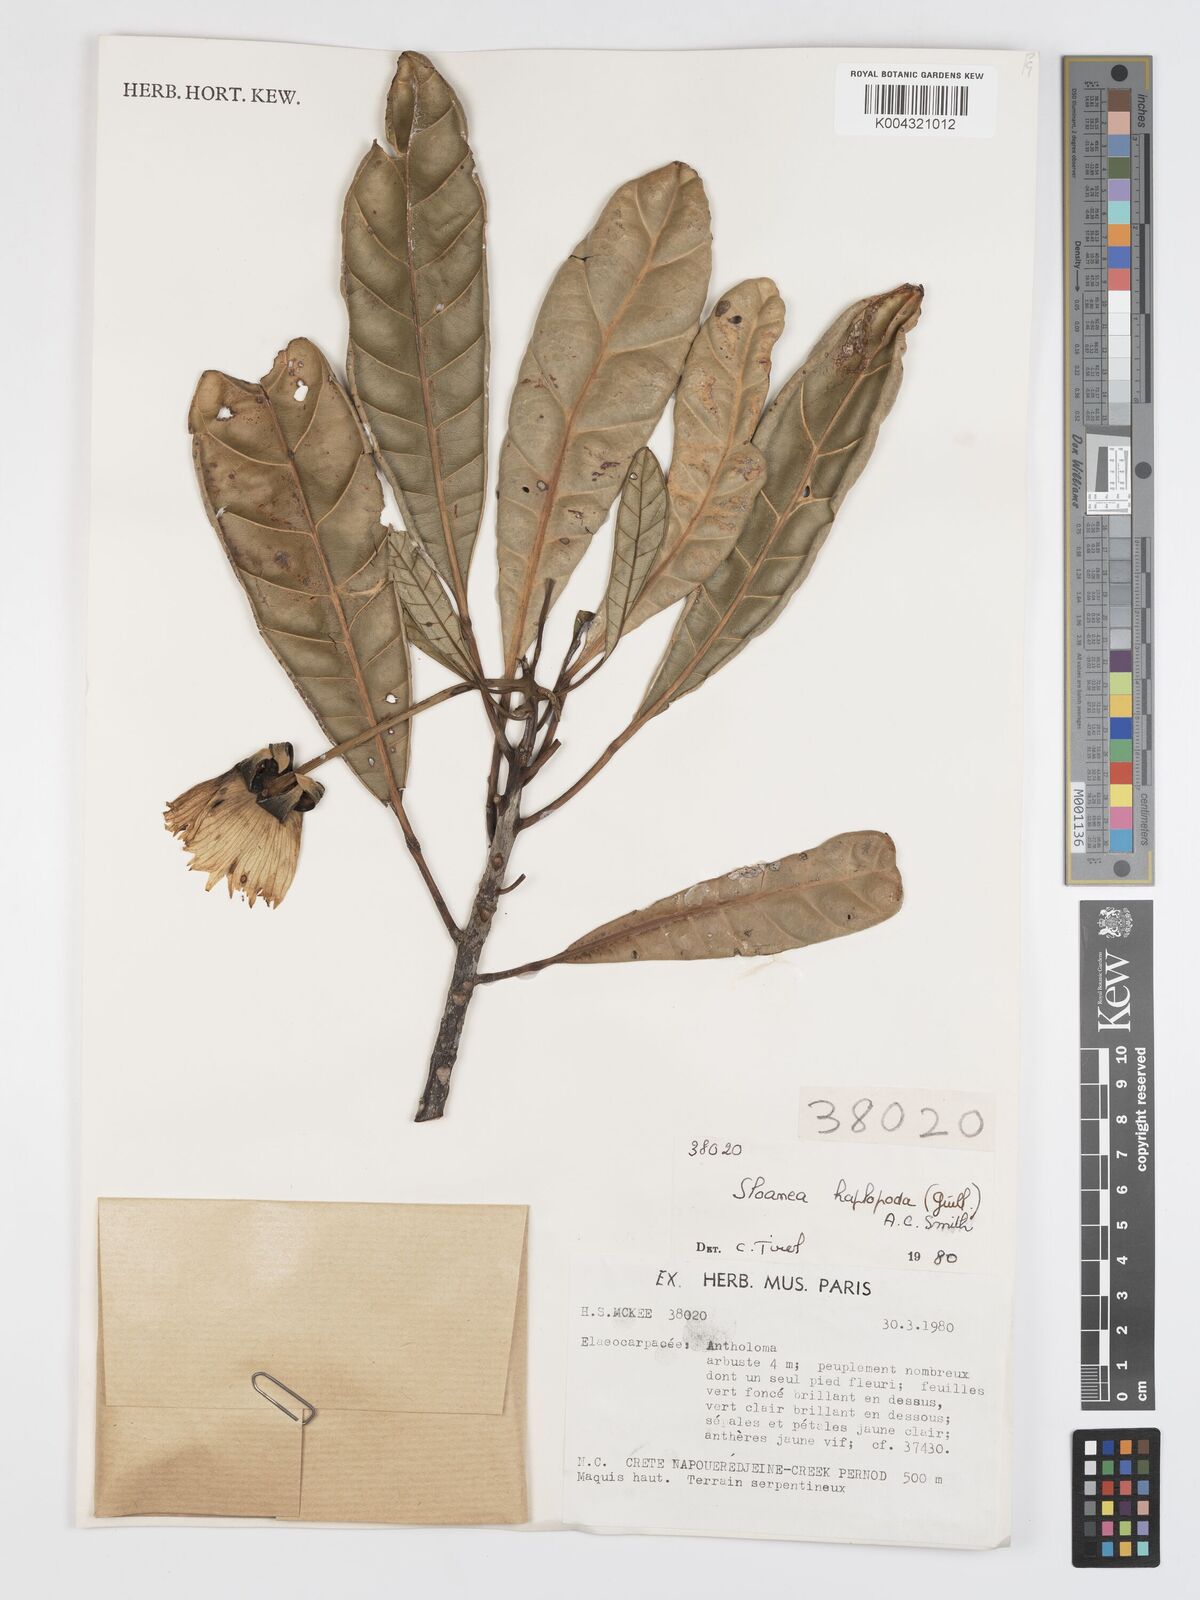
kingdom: Plantae
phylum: Tracheophyta
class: Magnoliopsida
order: Oxalidales
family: Elaeocarpaceae
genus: Sloanea
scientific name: Sloanea haplopoda
